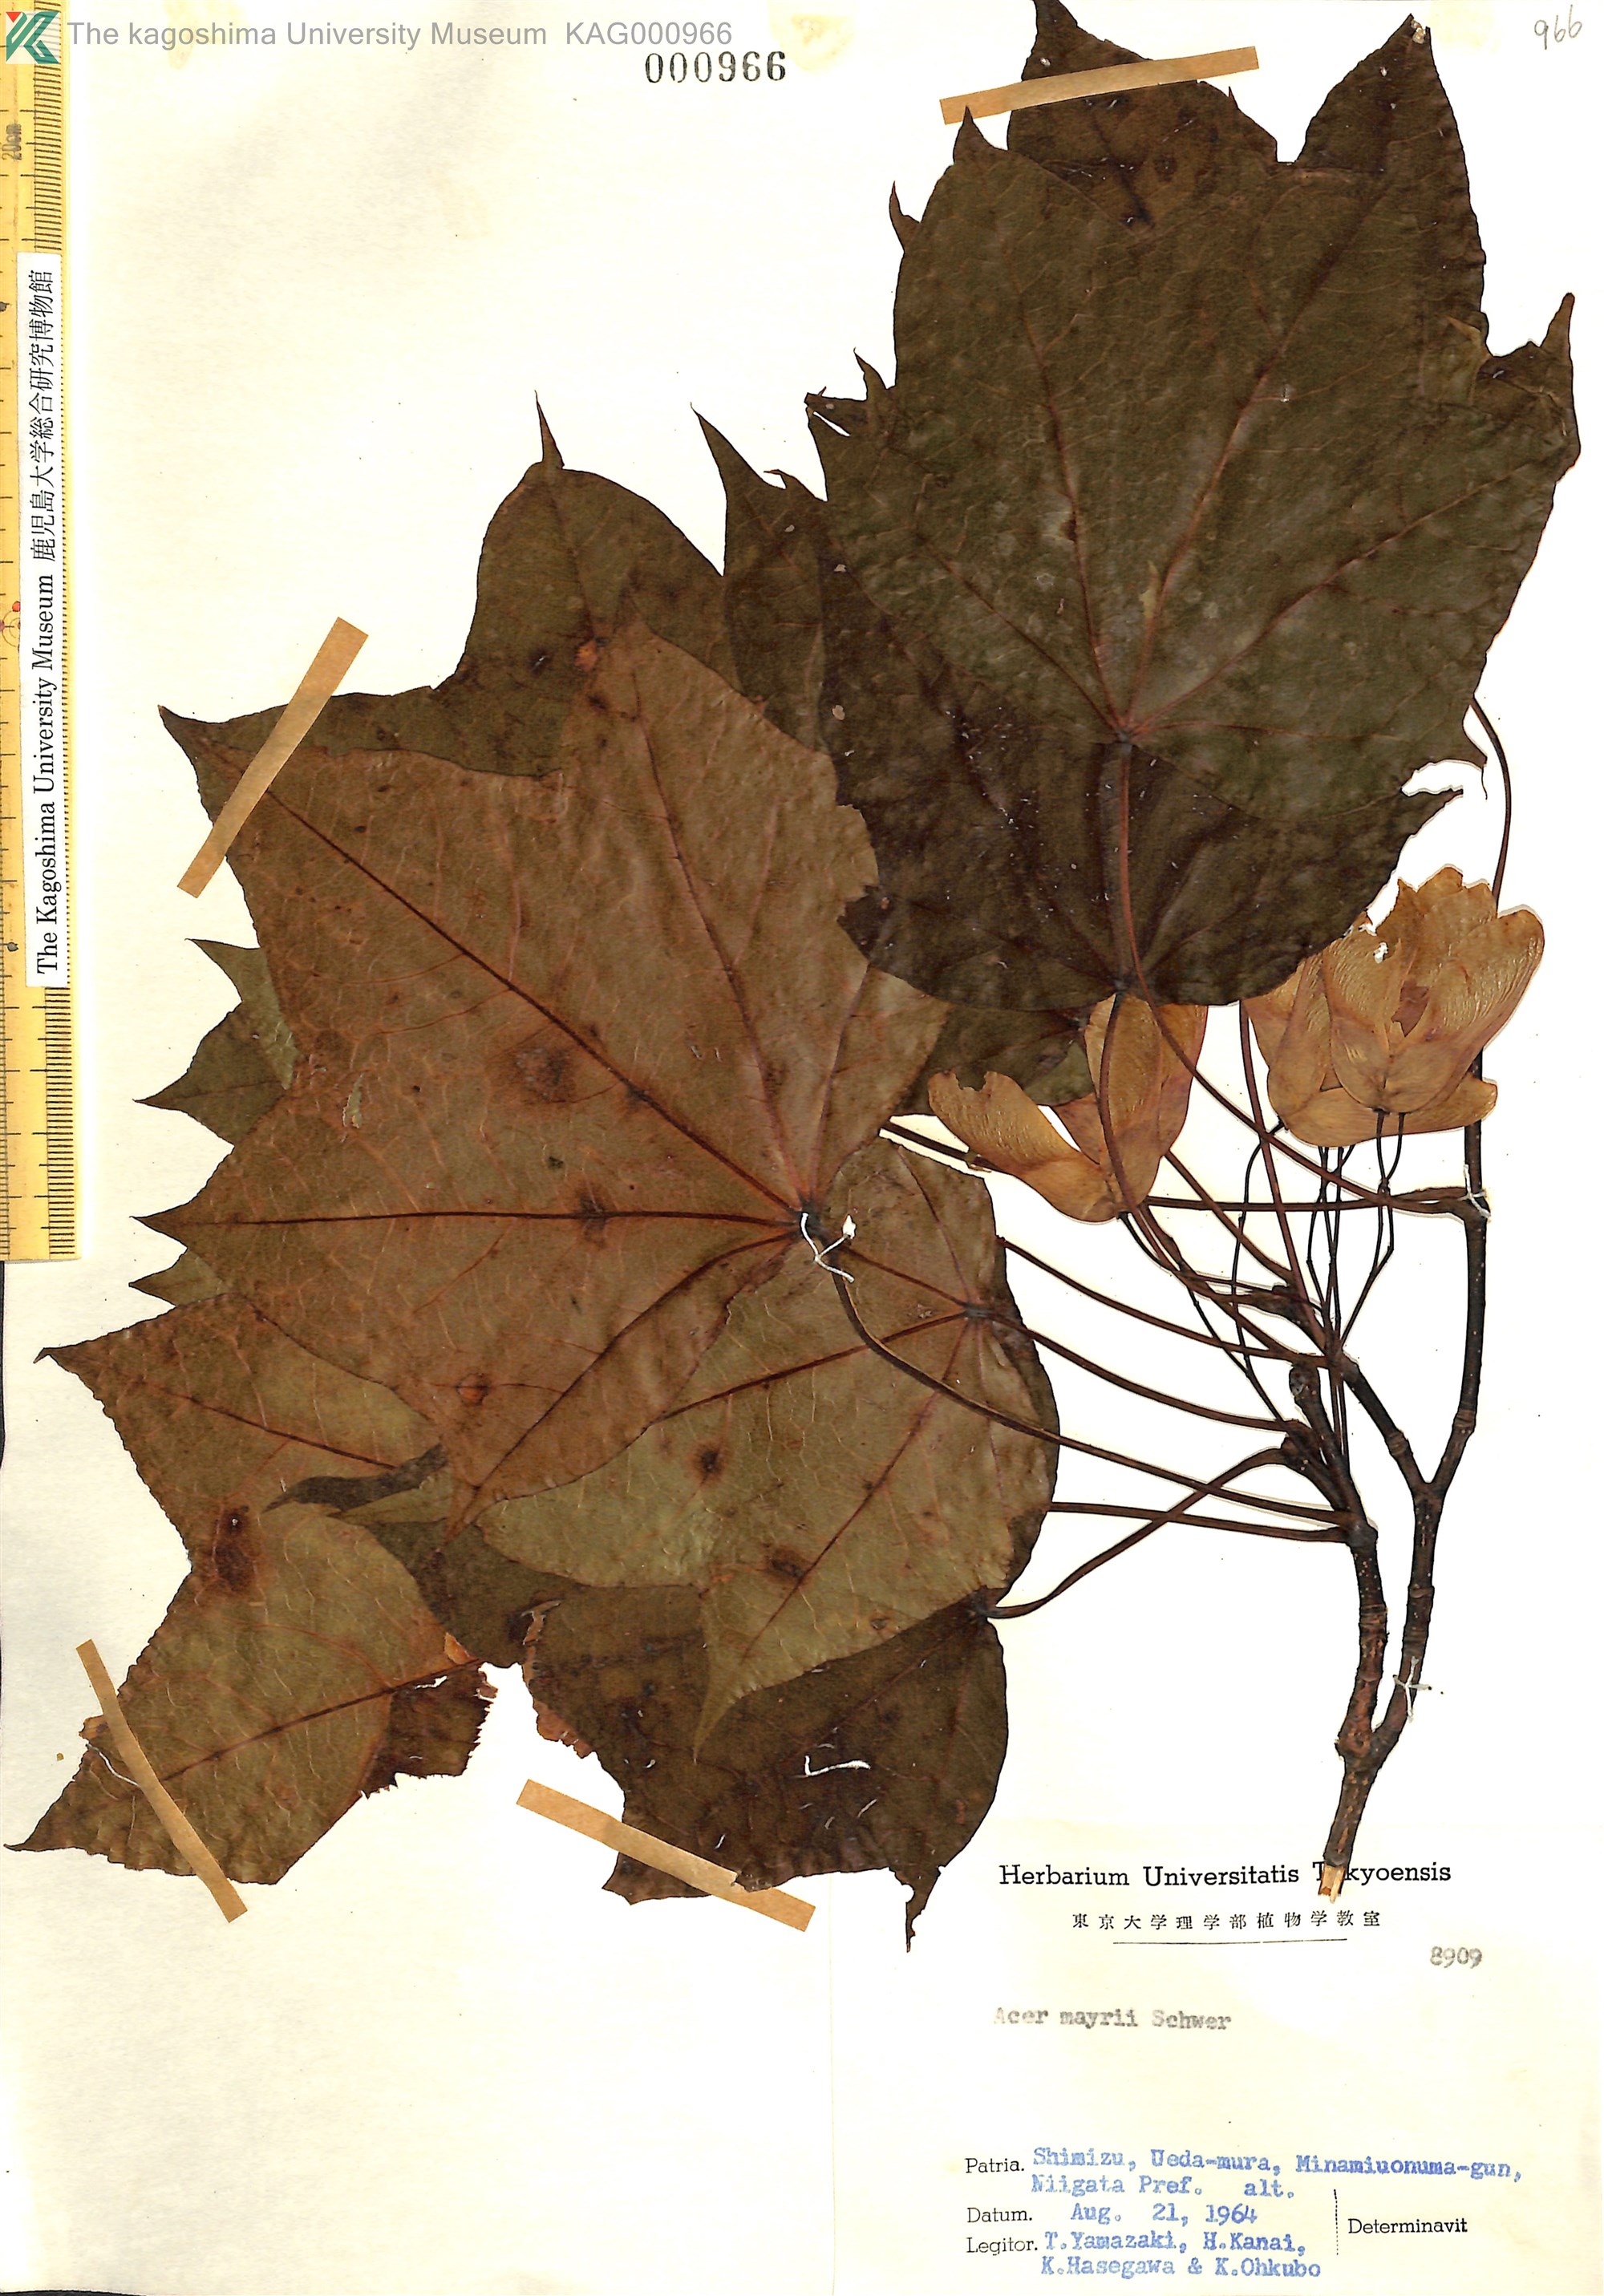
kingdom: Plantae
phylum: Tracheophyta
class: Magnoliopsida
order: Sapindales
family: Sapindaceae
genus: Acer
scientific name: Acer pictum
